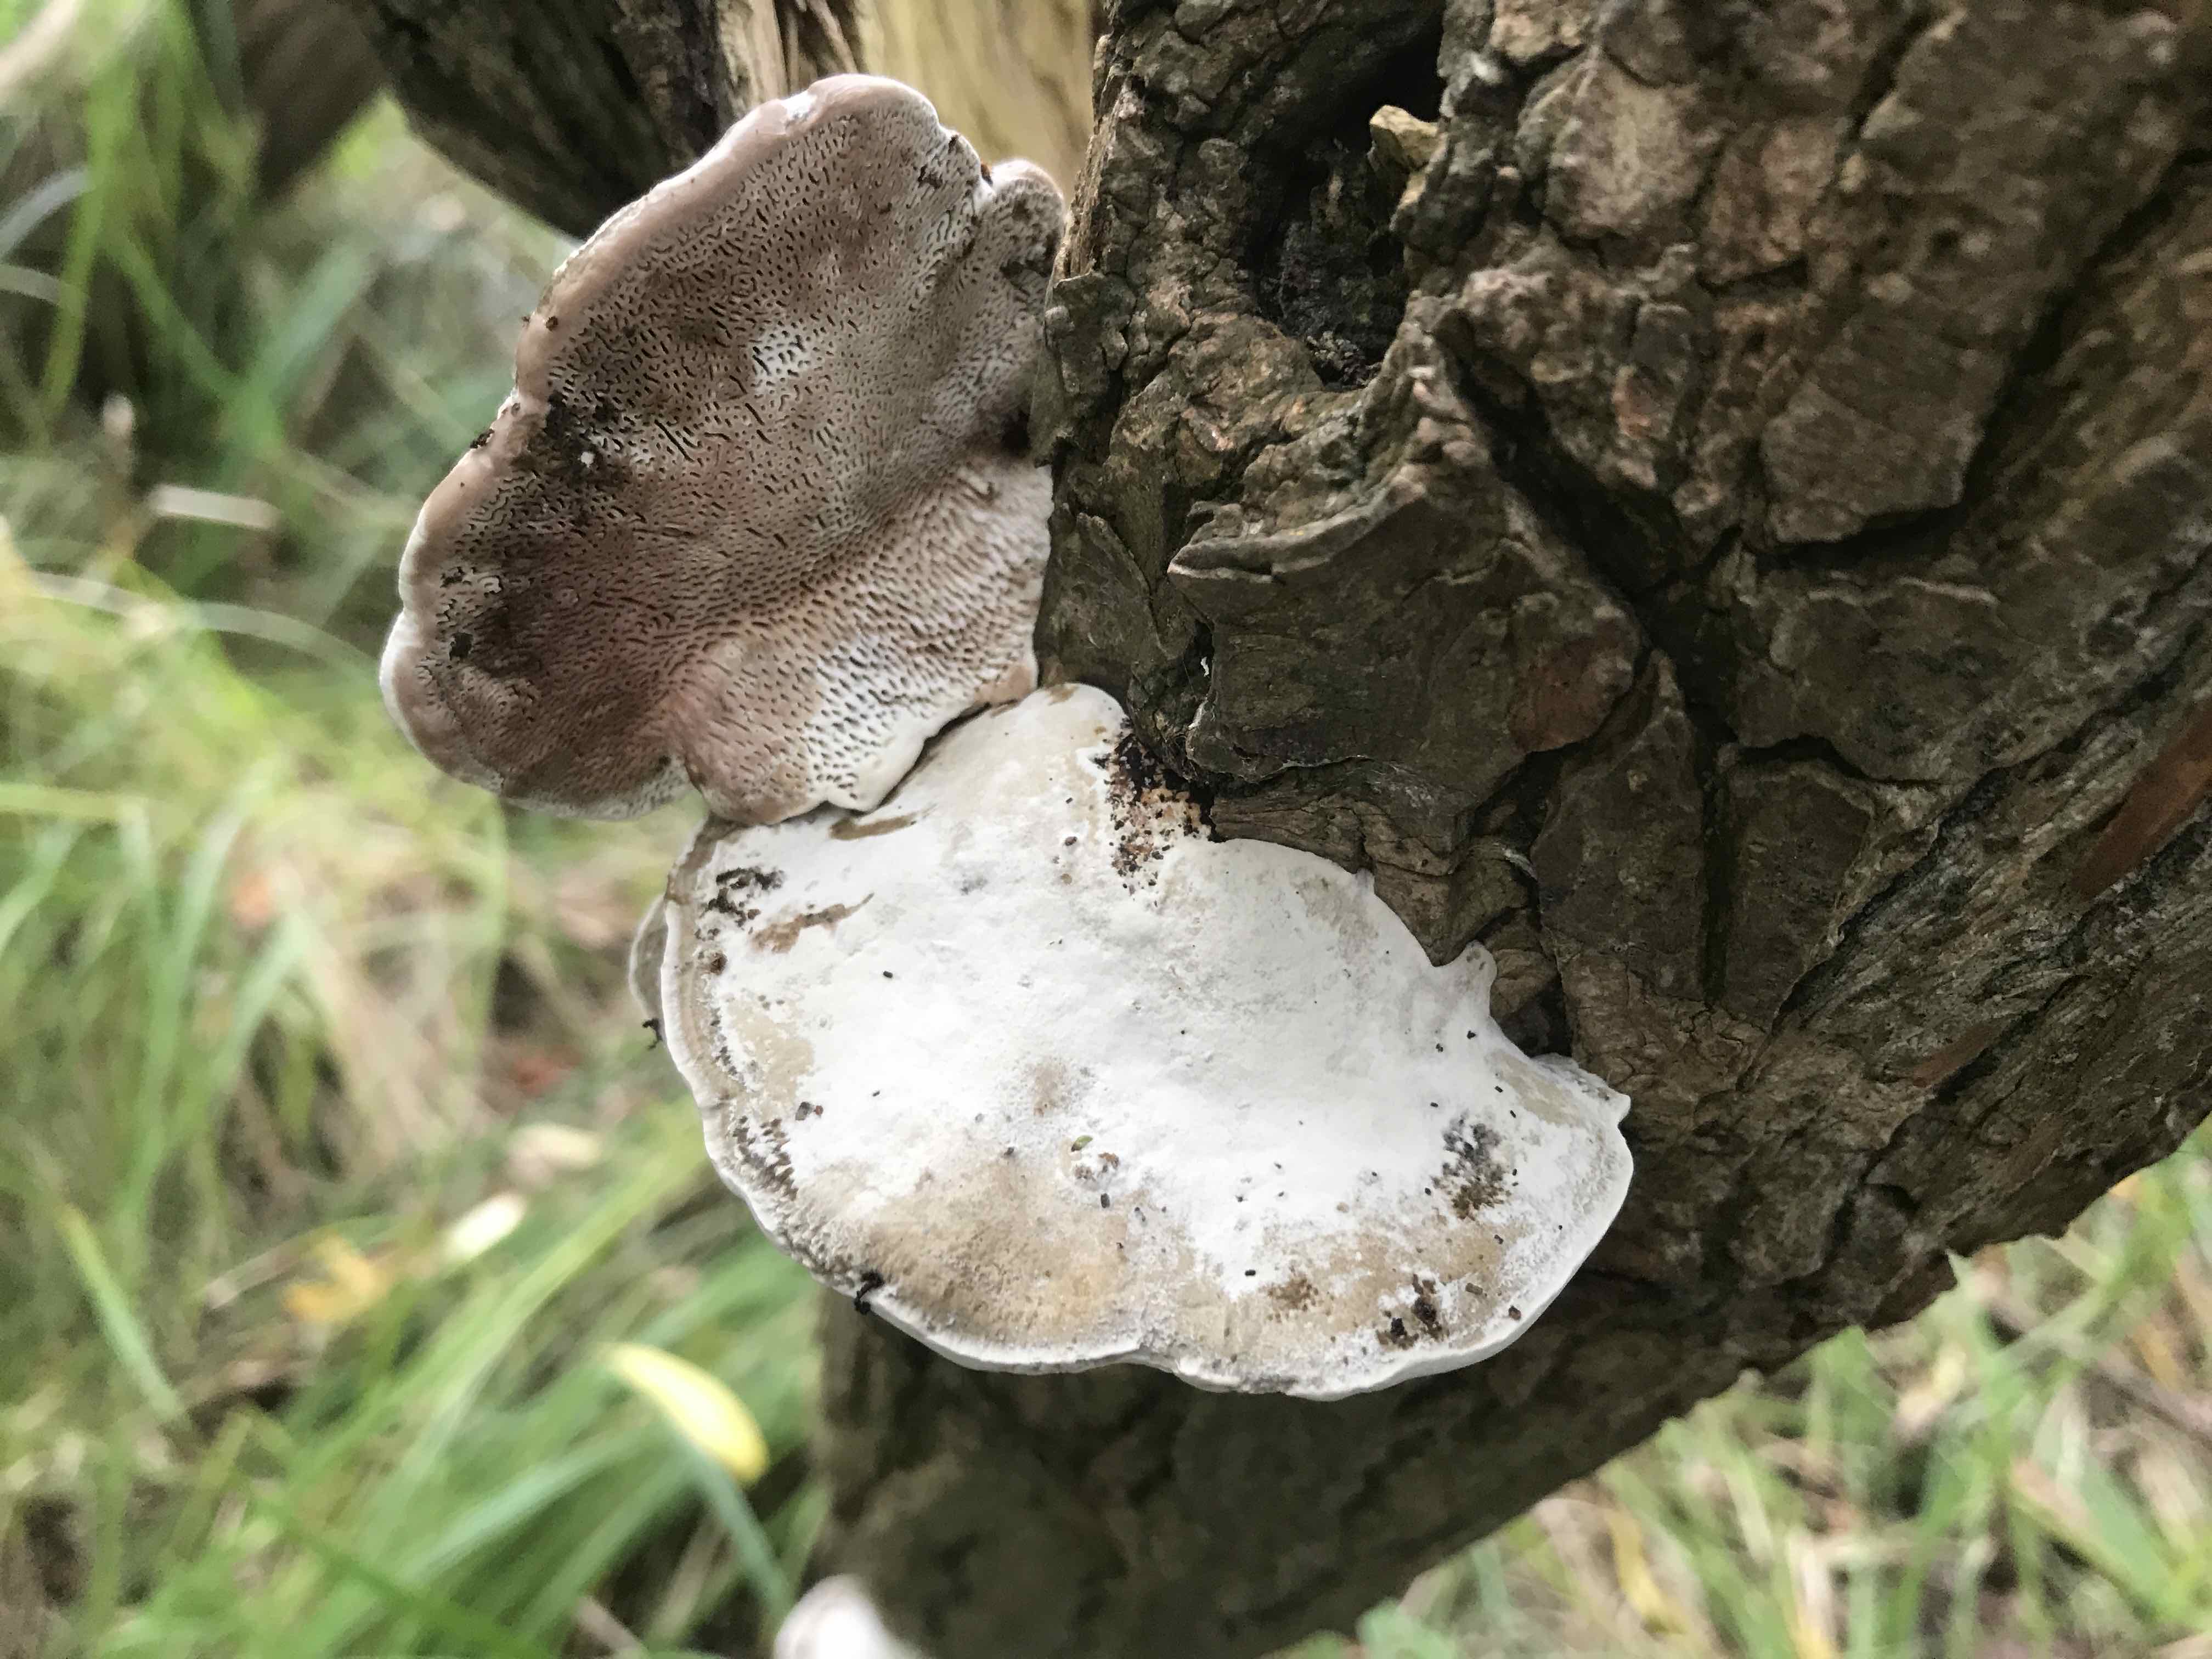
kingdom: Fungi
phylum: Basidiomycota
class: Agaricomycetes
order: Polyporales
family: Polyporaceae
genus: Daedaleopsis
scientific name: Daedaleopsis confragosa
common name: rødmende læderporesvamp
